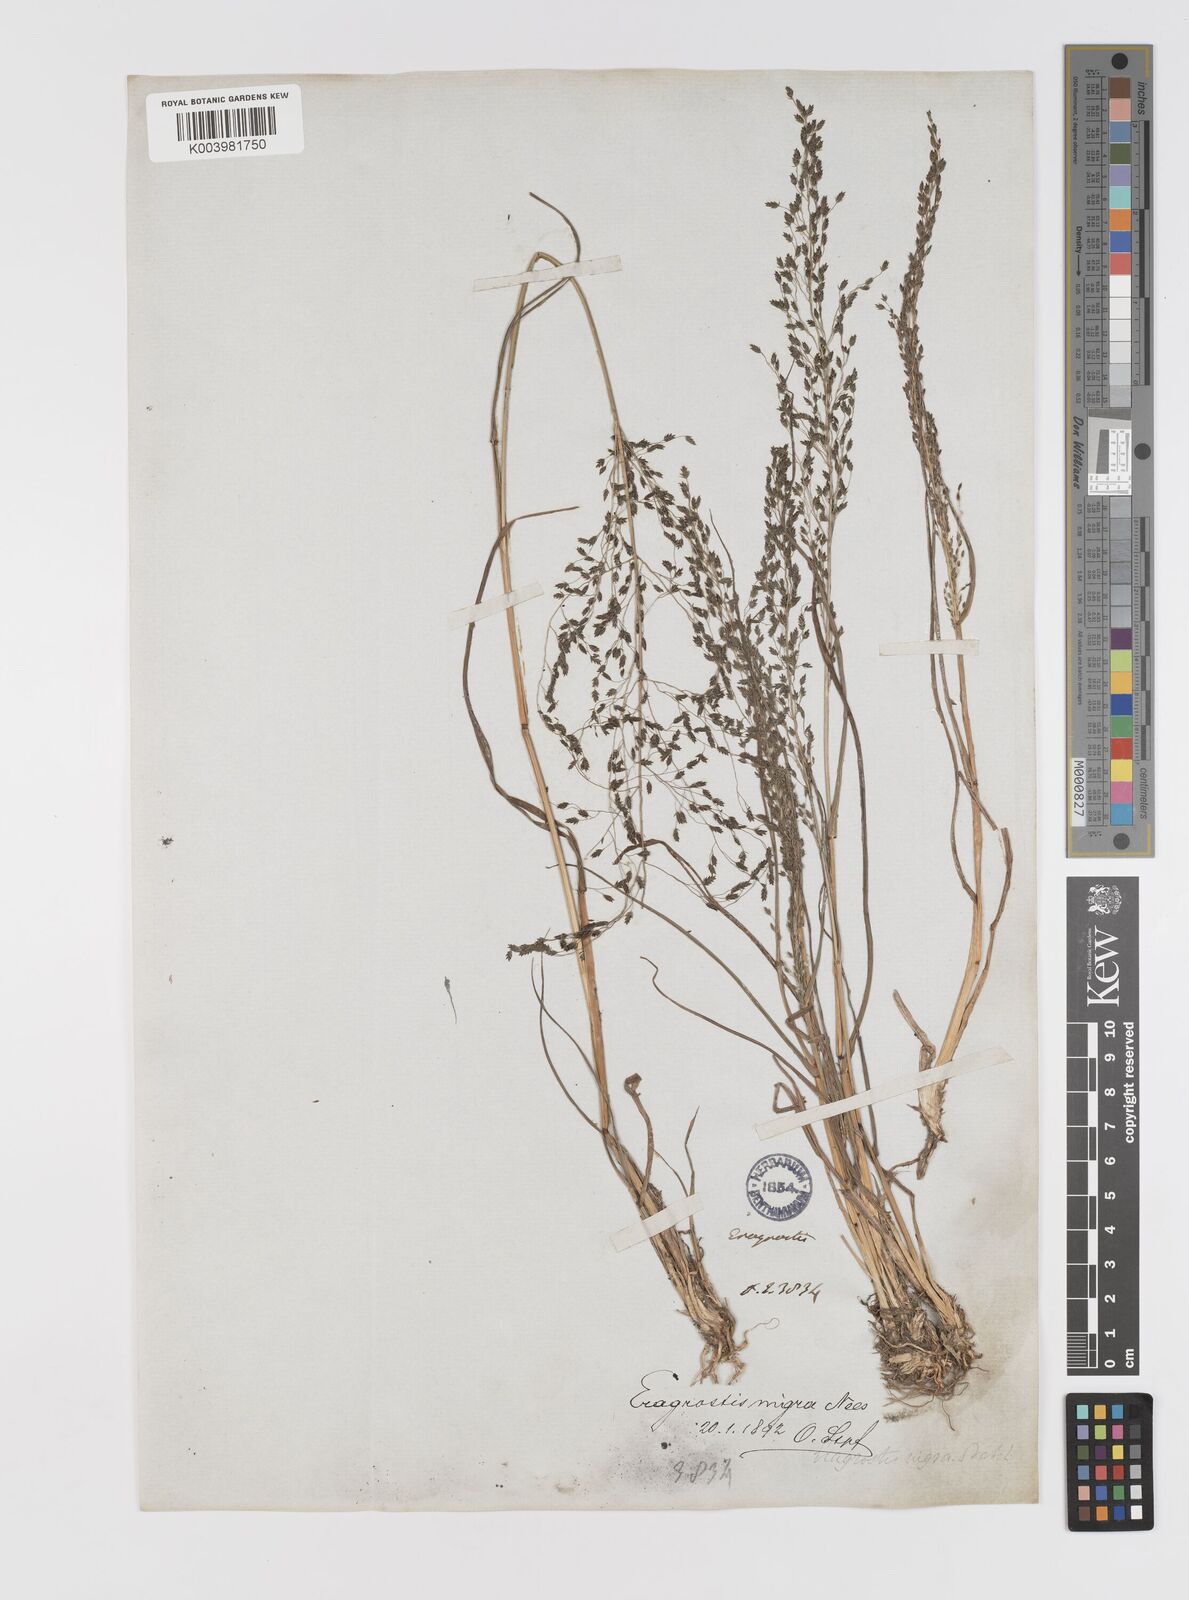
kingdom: Plantae
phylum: Tracheophyta
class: Liliopsida
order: Poales
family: Poaceae
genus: Eragrostis
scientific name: Eragrostis nigra
